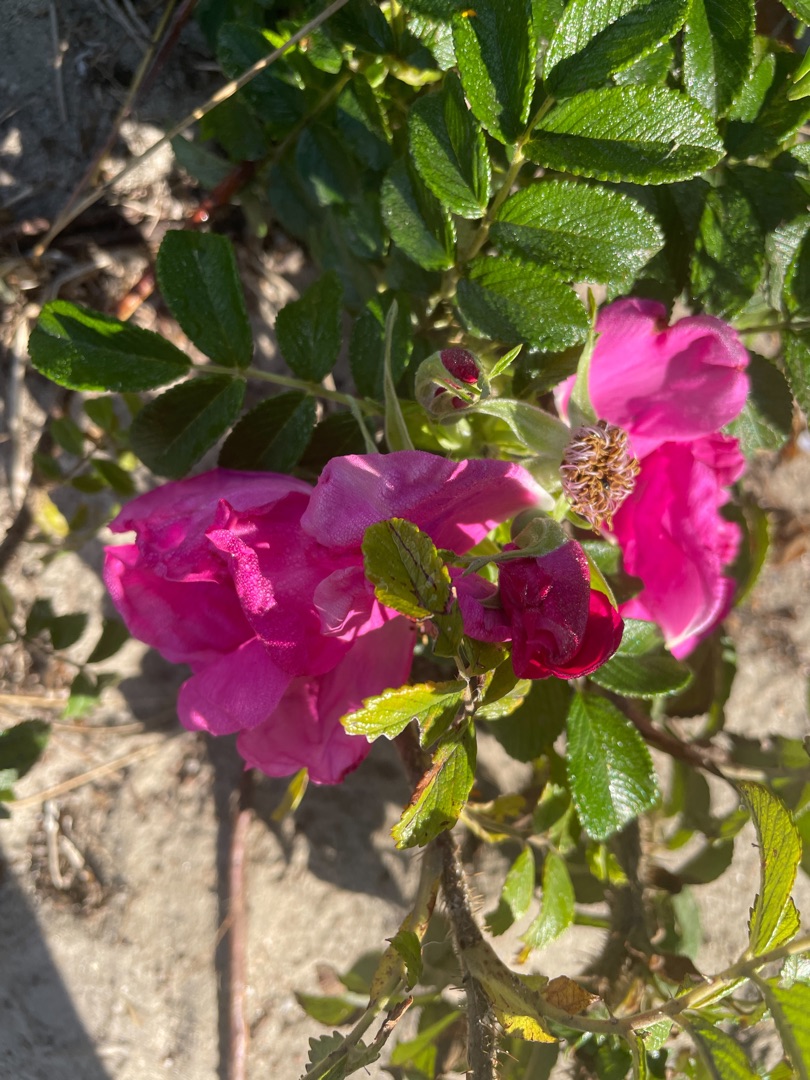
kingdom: Plantae
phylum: Tracheophyta
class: Magnoliopsida
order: Rosales
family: Rosaceae
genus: Rosa
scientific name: Rosa rugosa
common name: Rynket rose
